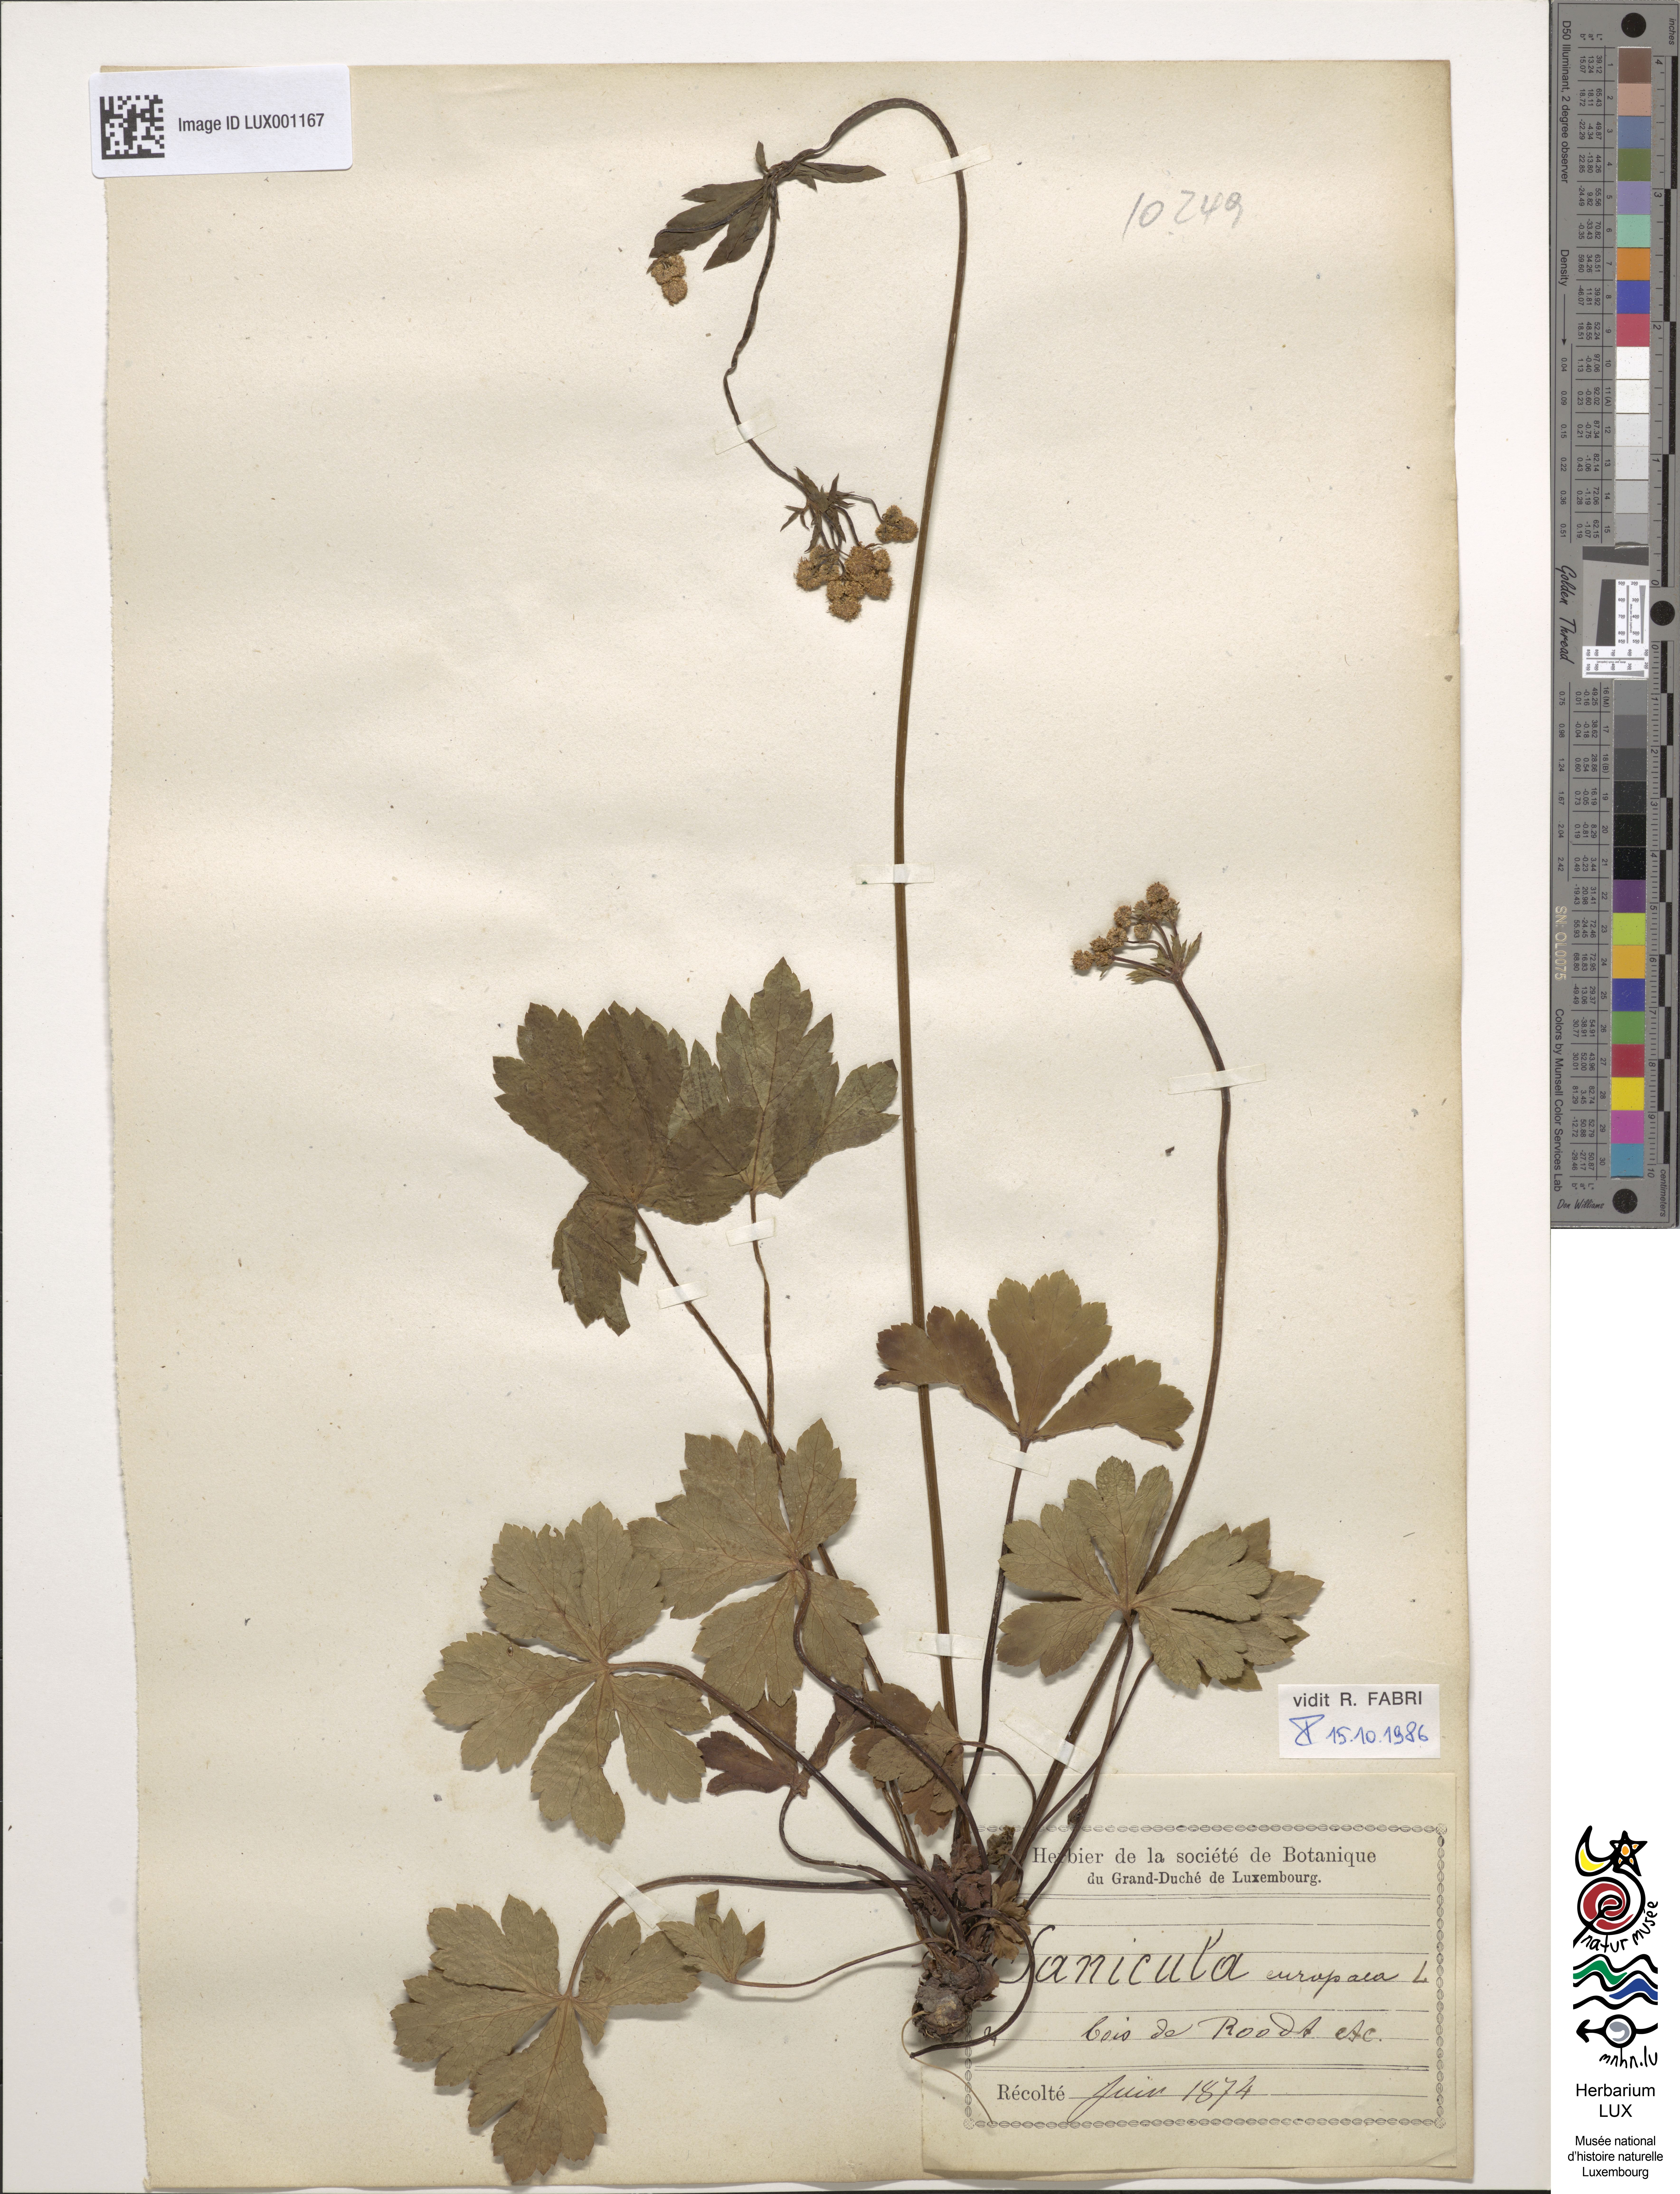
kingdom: Plantae
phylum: Tracheophyta
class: Magnoliopsida
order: Apiales
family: Apiaceae
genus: Sanicula
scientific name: Sanicula europaea
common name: Sanicle
